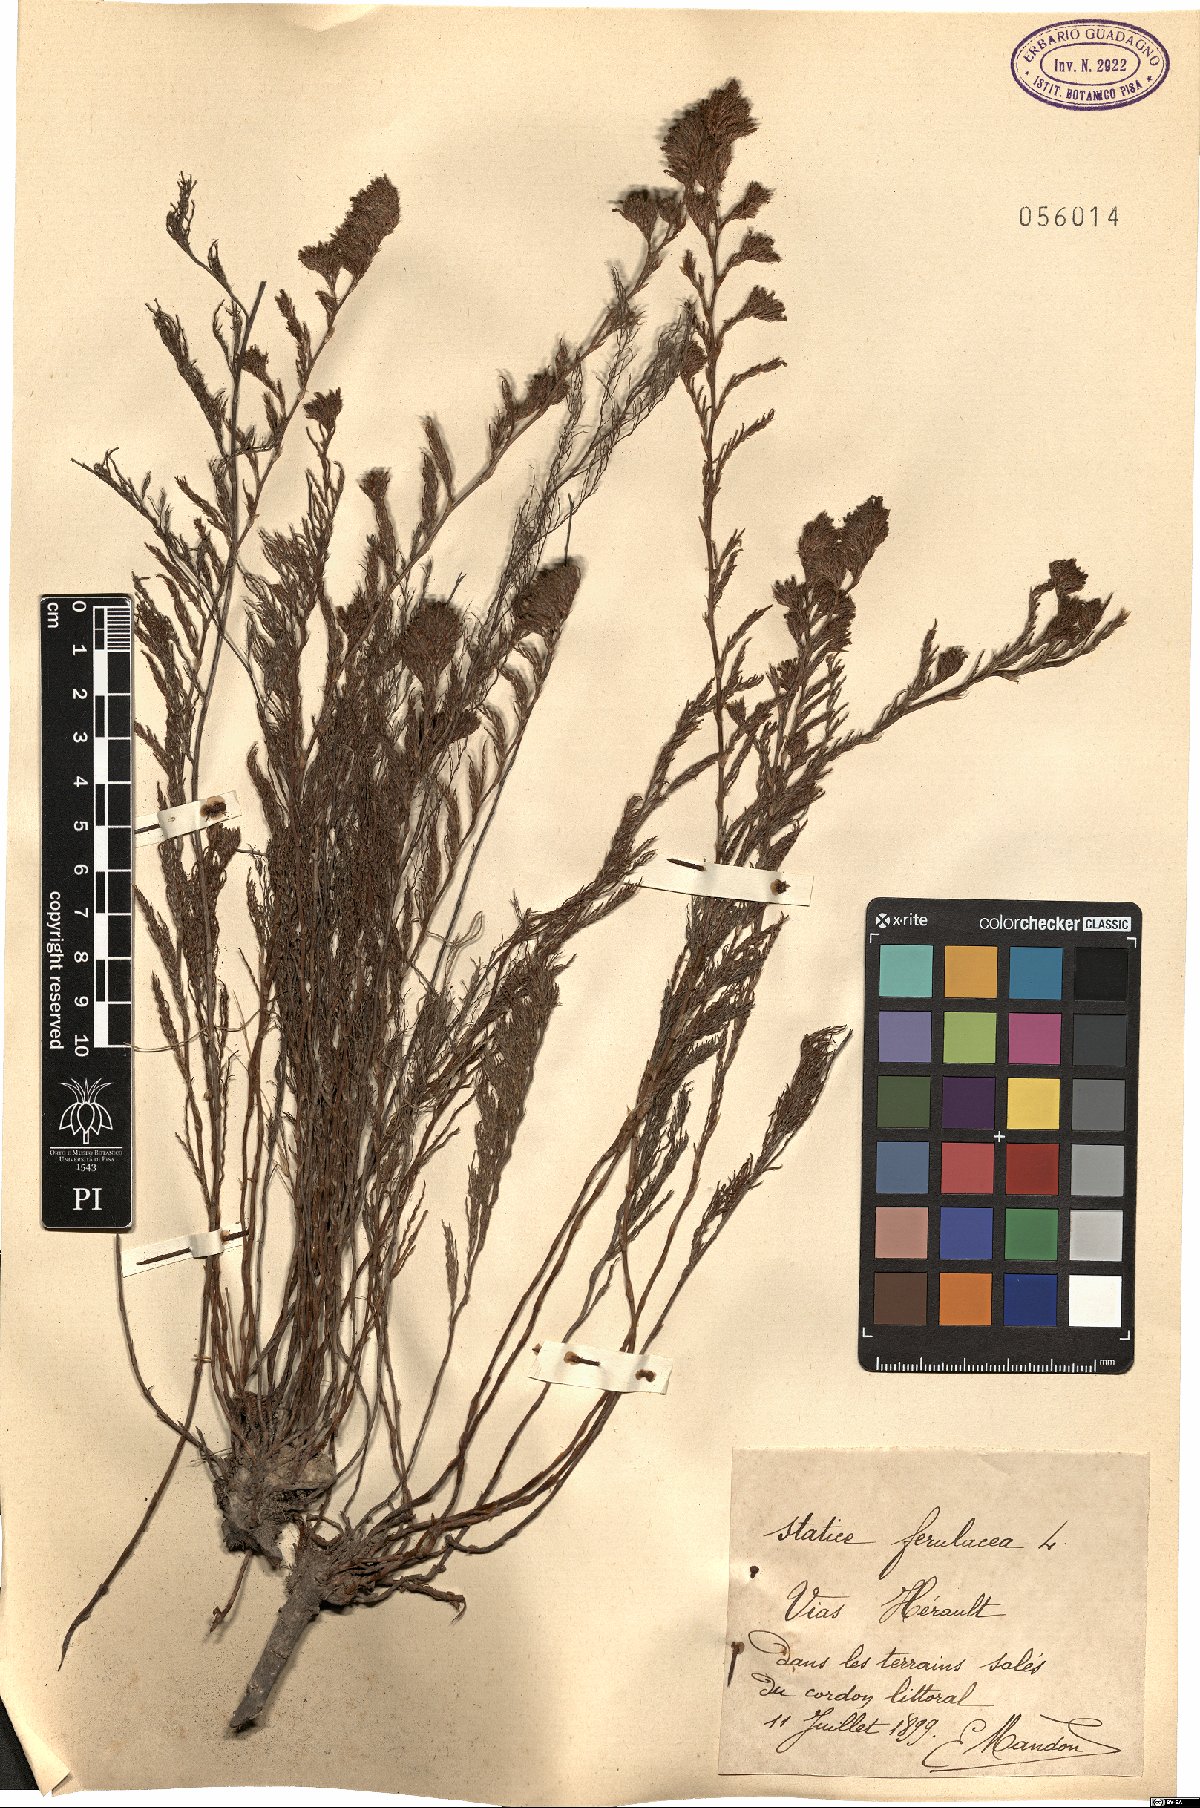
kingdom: Plantae
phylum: Tracheophyta
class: Magnoliopsida
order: Caryophyllales
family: Plumbaginaceae
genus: Myriolimon
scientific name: Myriolimon ferulaceum
